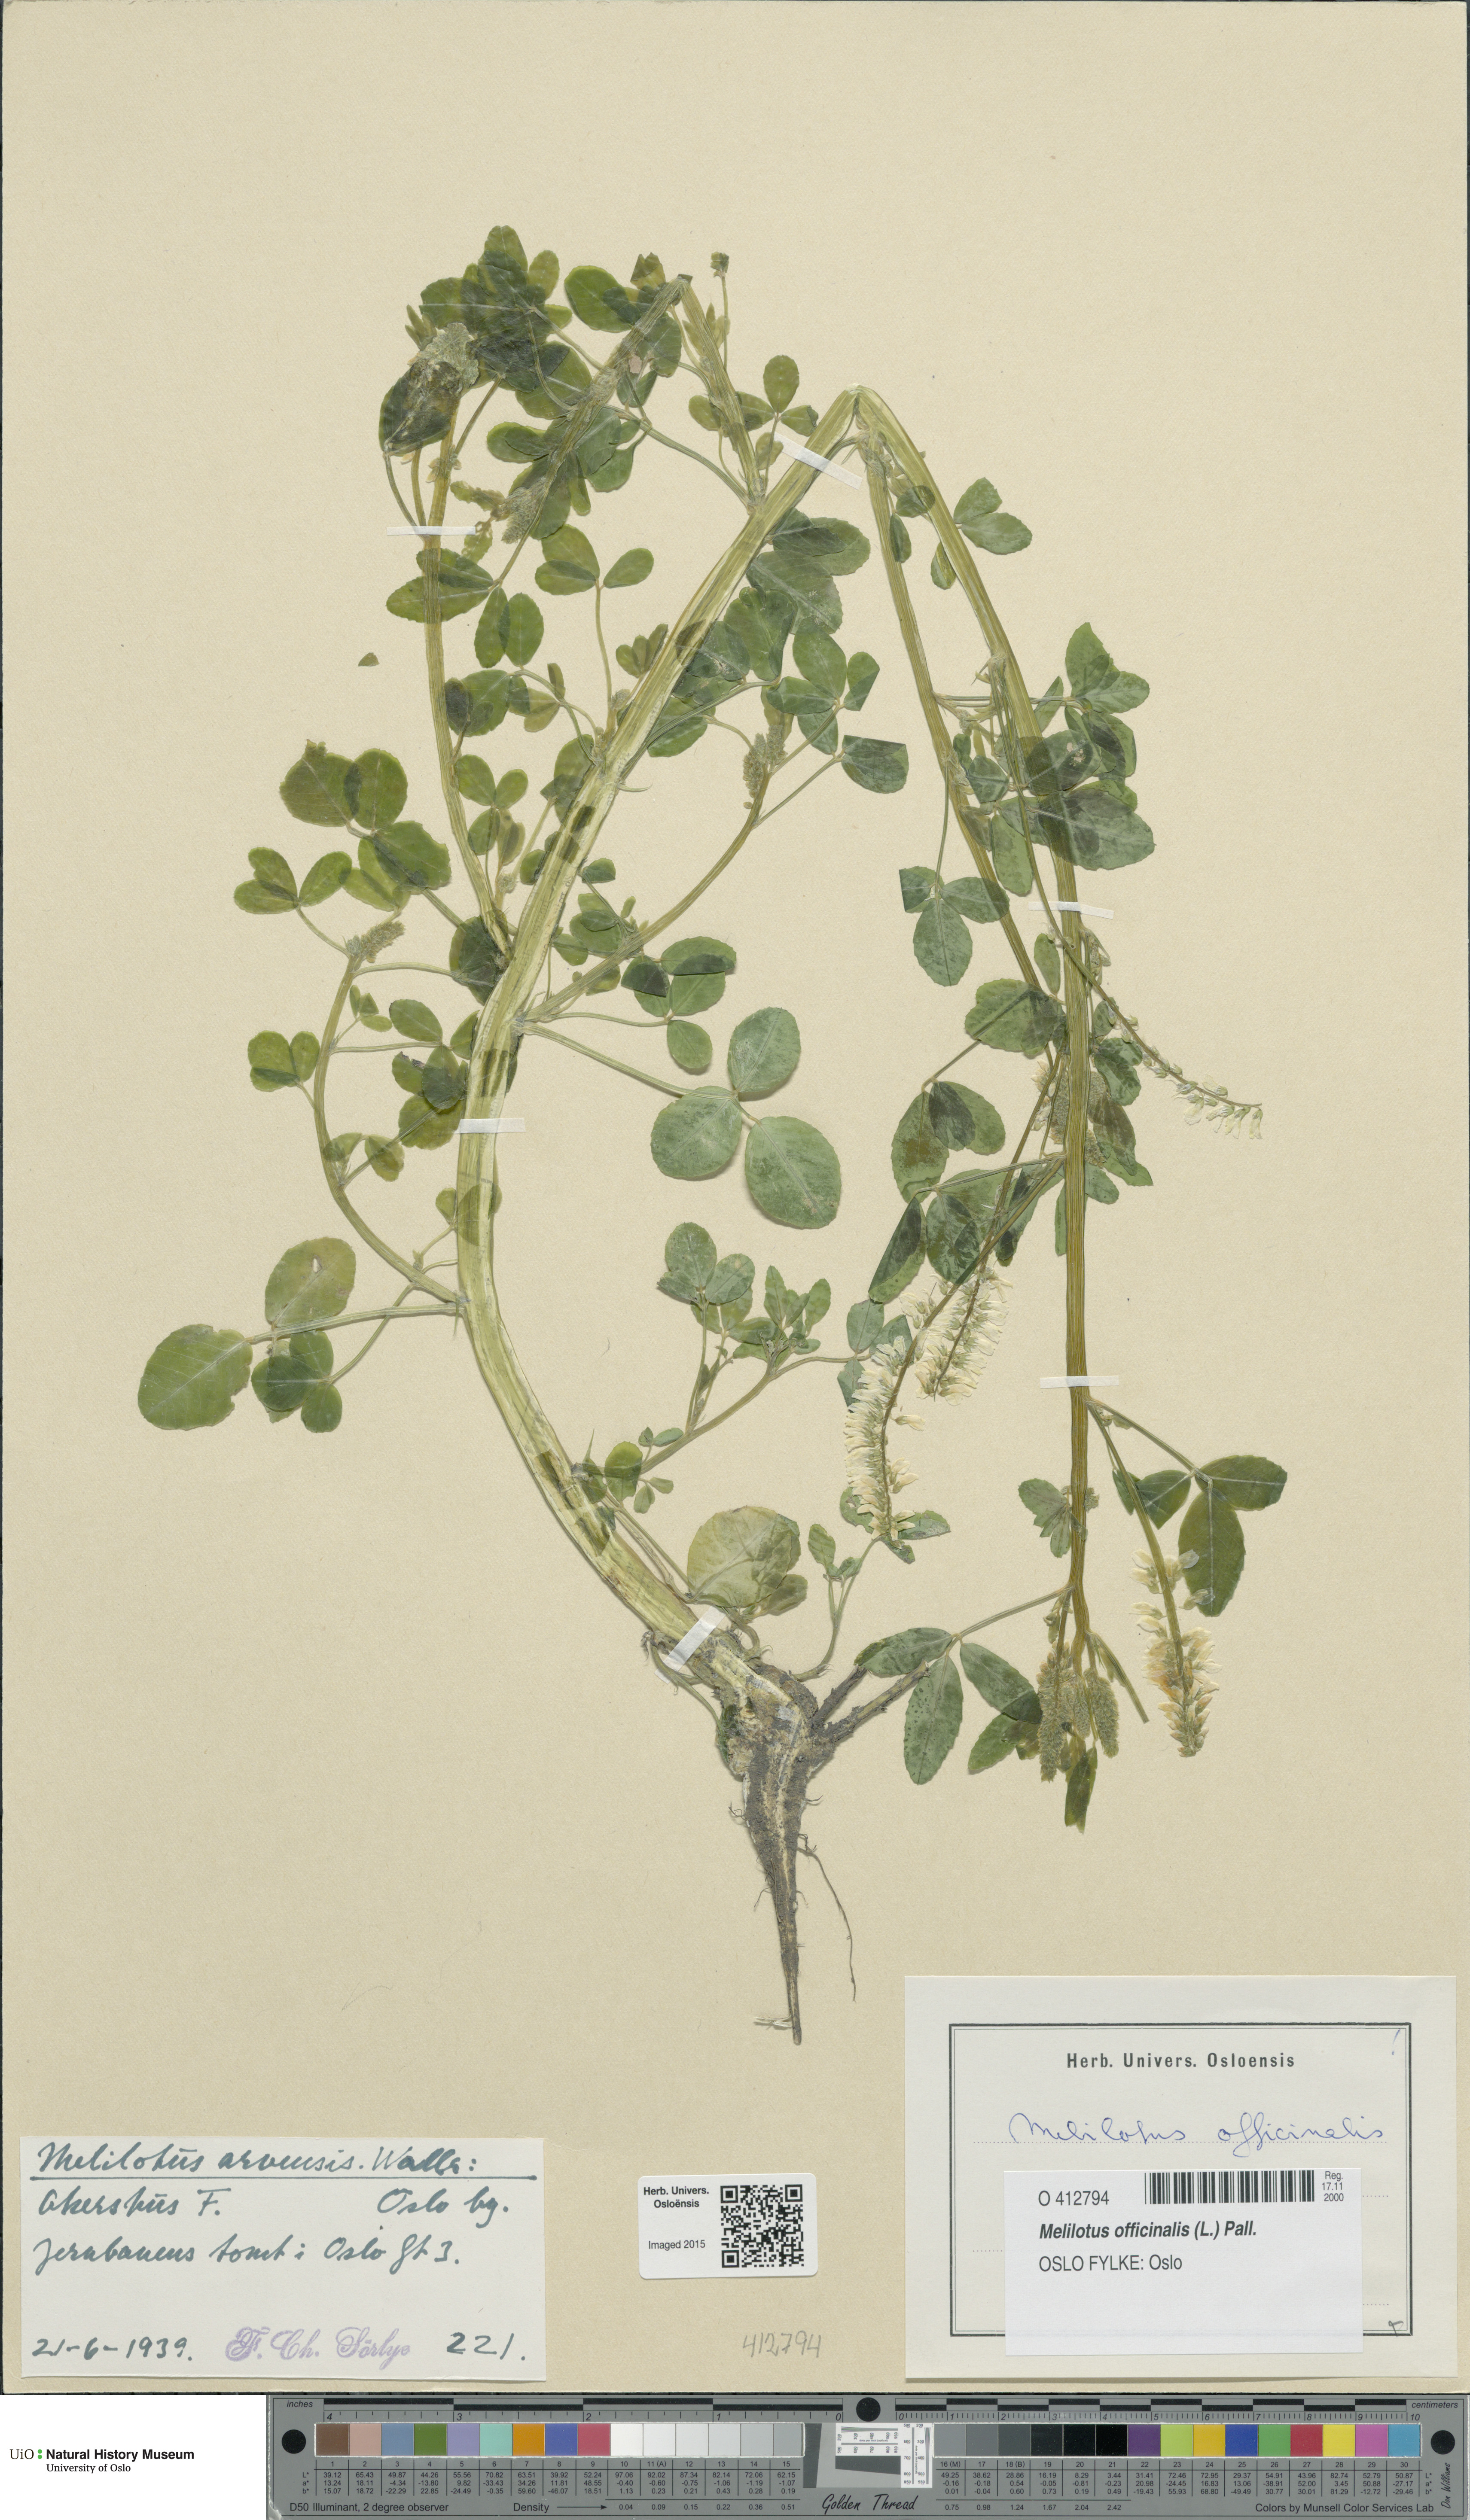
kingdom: Plantae
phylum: Tracheophyta
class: Magnoliopsida
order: Fabales
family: Fabaceae
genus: Melilotus
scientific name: Melilotus officinalis
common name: Sweetclover
